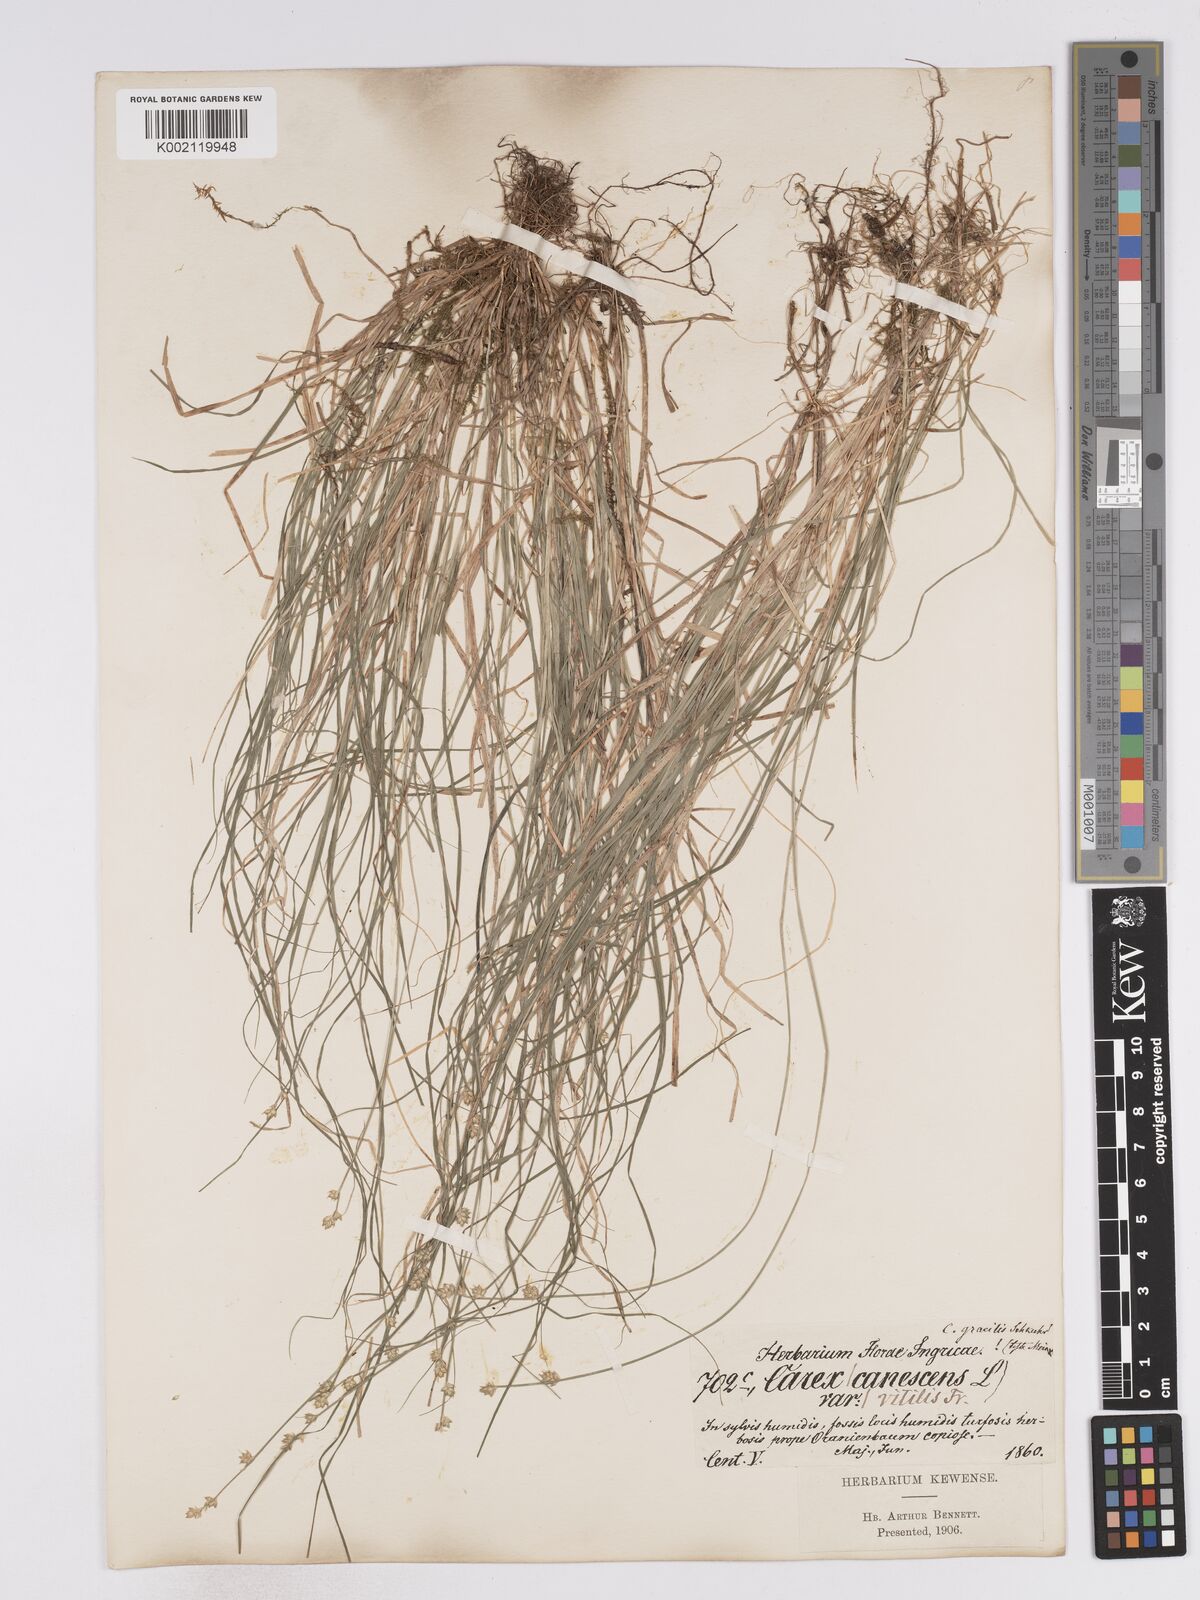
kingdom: Plantae
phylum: Tracheophyta
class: Liliopsida
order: Poales
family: Cyperaceae
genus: Carex
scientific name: Carex divisa
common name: Divided sedge
